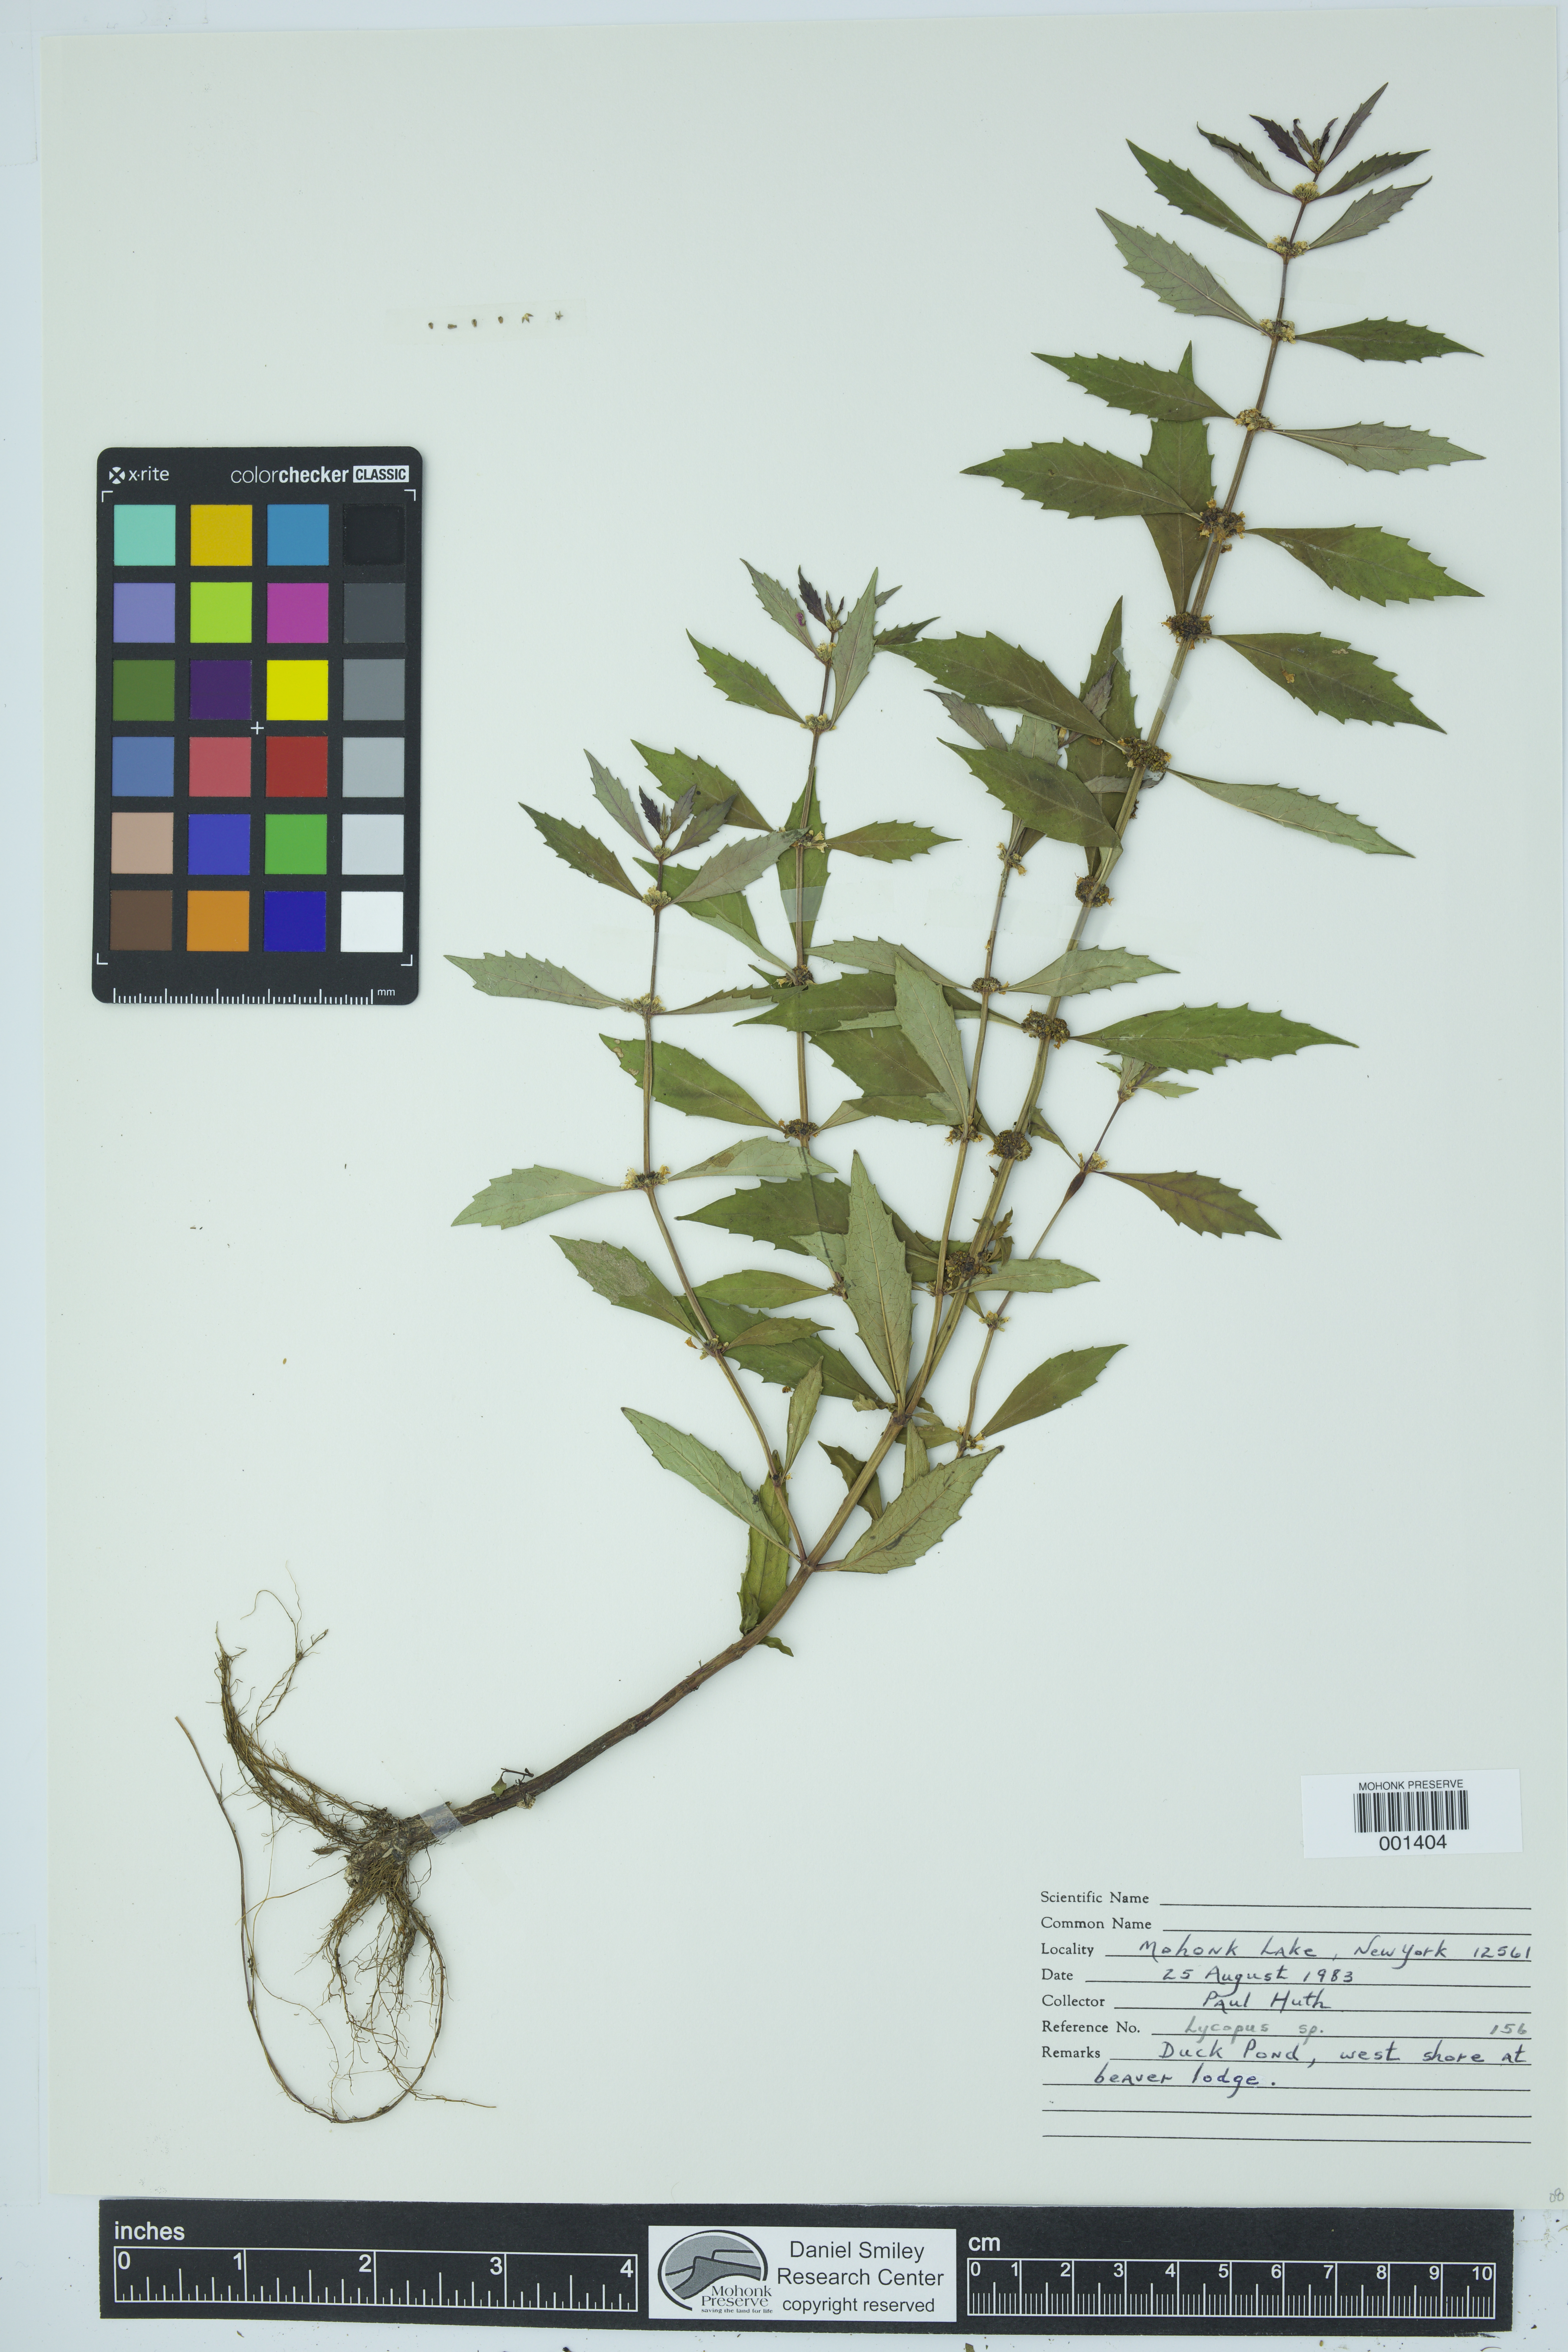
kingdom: Plantae
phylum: Tracheophyta
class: Magnoliopsida
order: Lamiales
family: Lamiaceae
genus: Lycopus
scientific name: Lycopus
